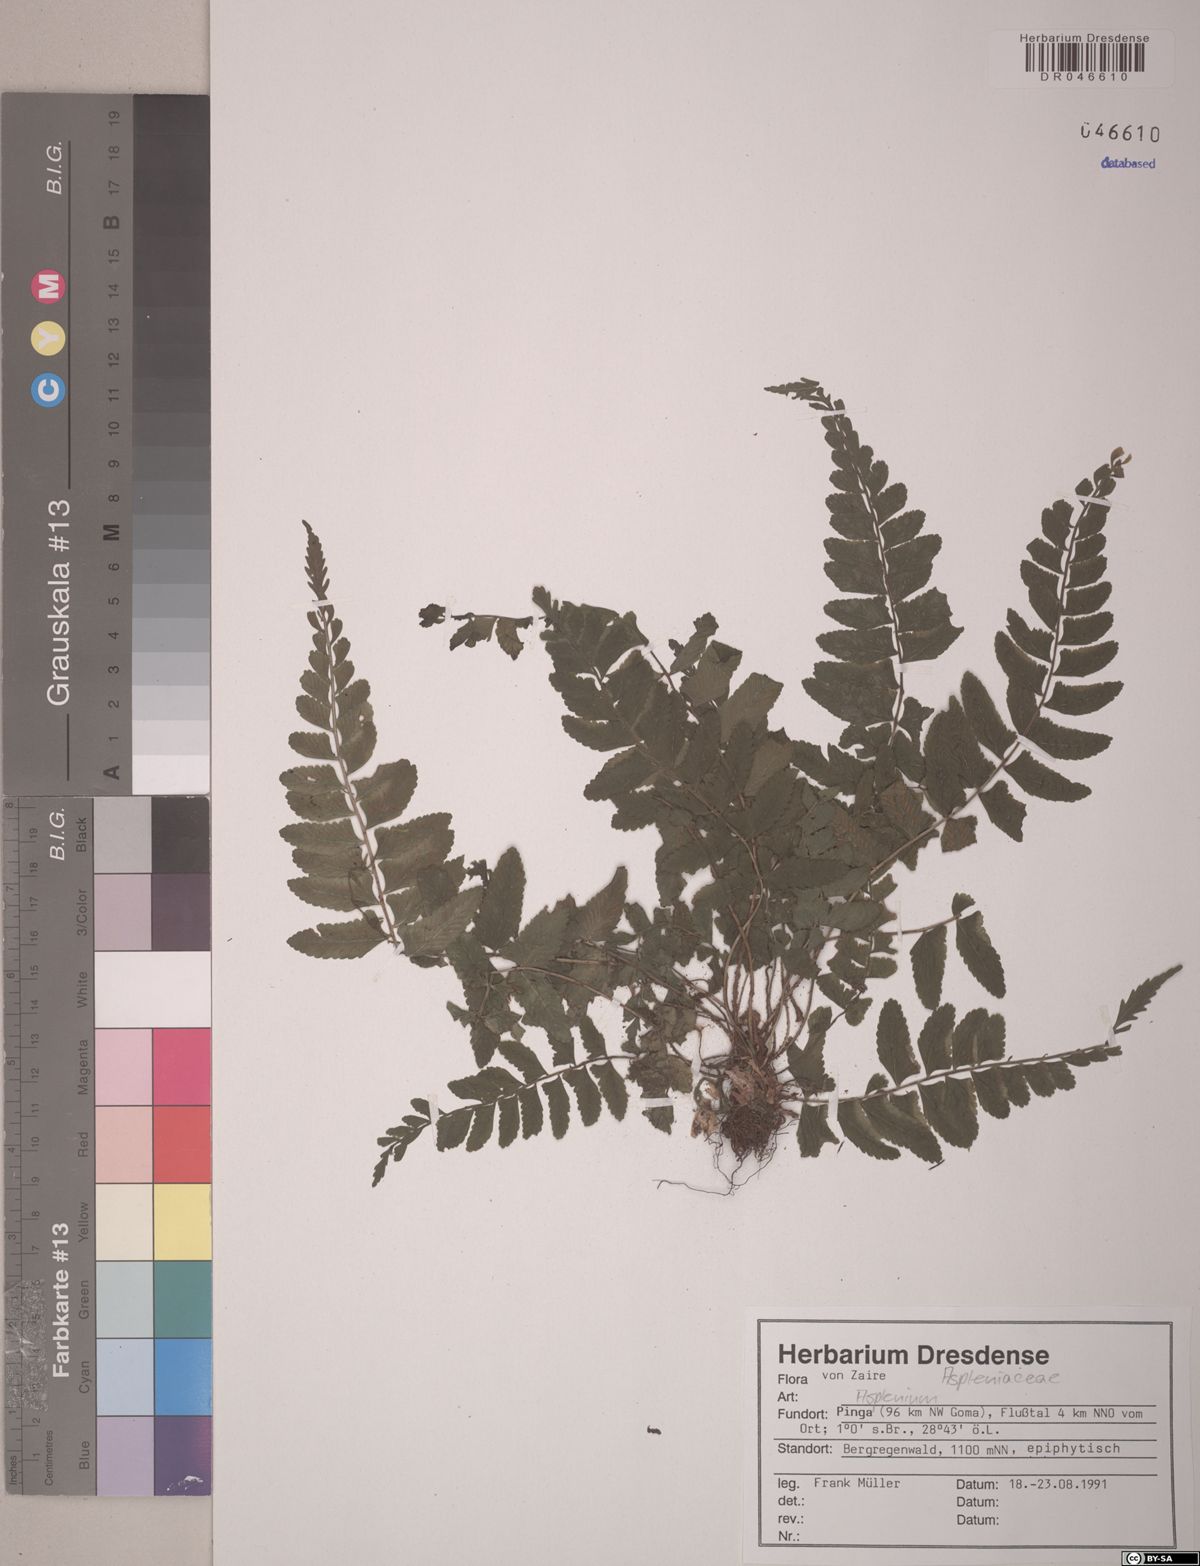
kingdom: Plantae
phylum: Tracheophyta
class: Polypodiopsida
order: Polypodiales
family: Aspleniaceae
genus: Asplenium
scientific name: Asplenium
